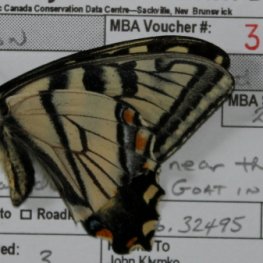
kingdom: Animalia
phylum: Arthropoda
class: Insecta
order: Lepidoptera
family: Papilionidae
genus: Pterourus
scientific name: Pterourus canadensis
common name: Canadian Tiger Swallowtail
